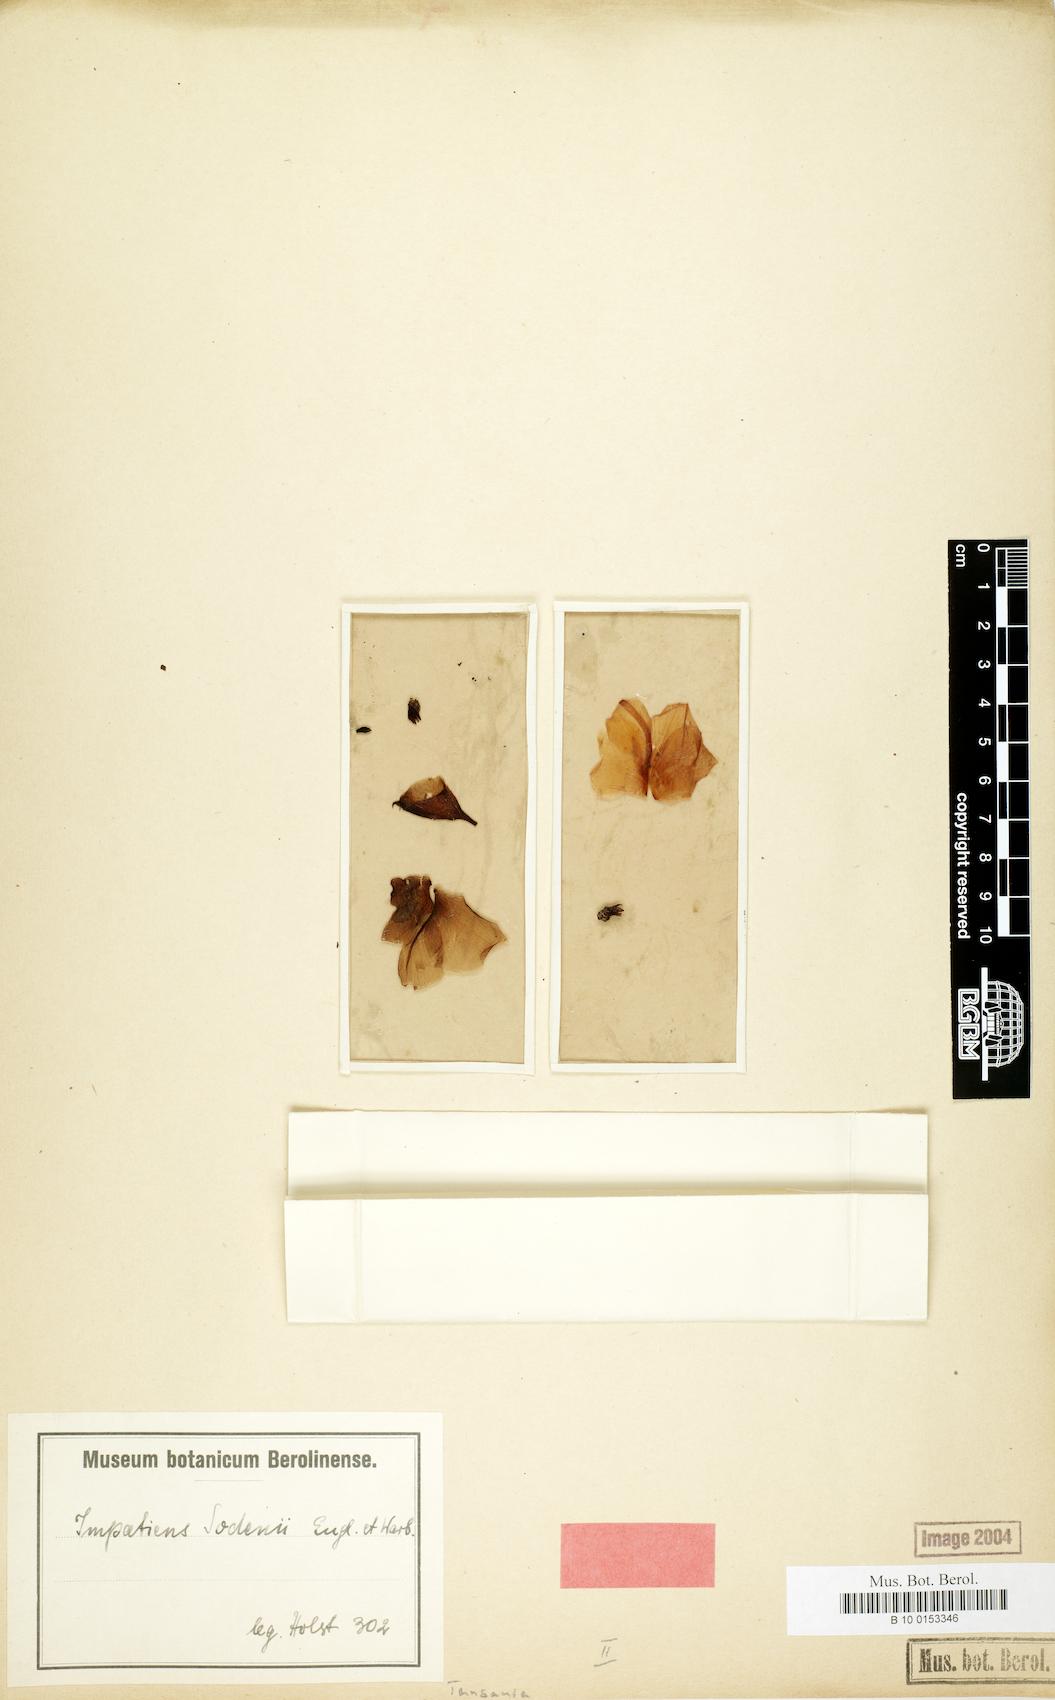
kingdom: Plantae
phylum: Tracheophyta
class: Magnoliopsida
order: Ericales
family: Balsaminaceae
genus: Impatiens
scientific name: Impatiens sodenii
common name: Oliver's touch-me-not
